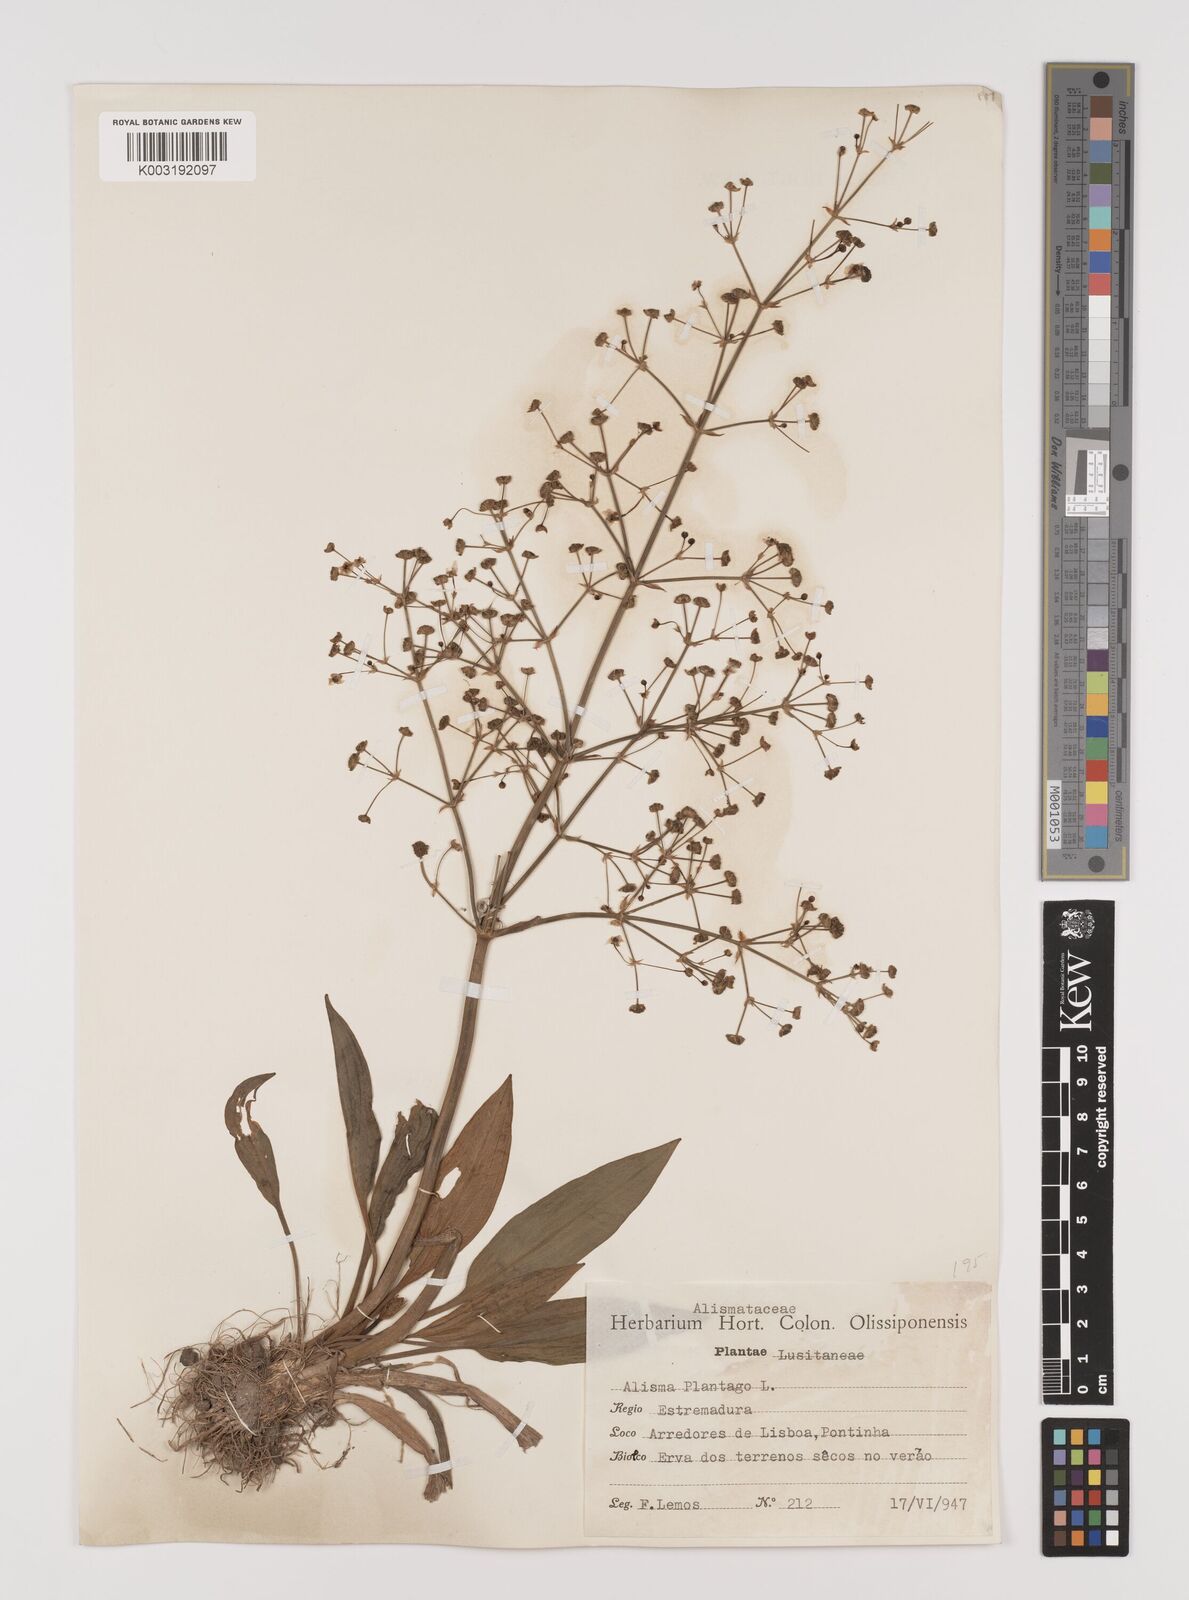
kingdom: Plantae
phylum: Tracheophyta
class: Liliopsida
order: Alismatales
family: Alismataceae
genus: Alisma
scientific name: Alisma plantago-aquatica
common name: Water-plantain
